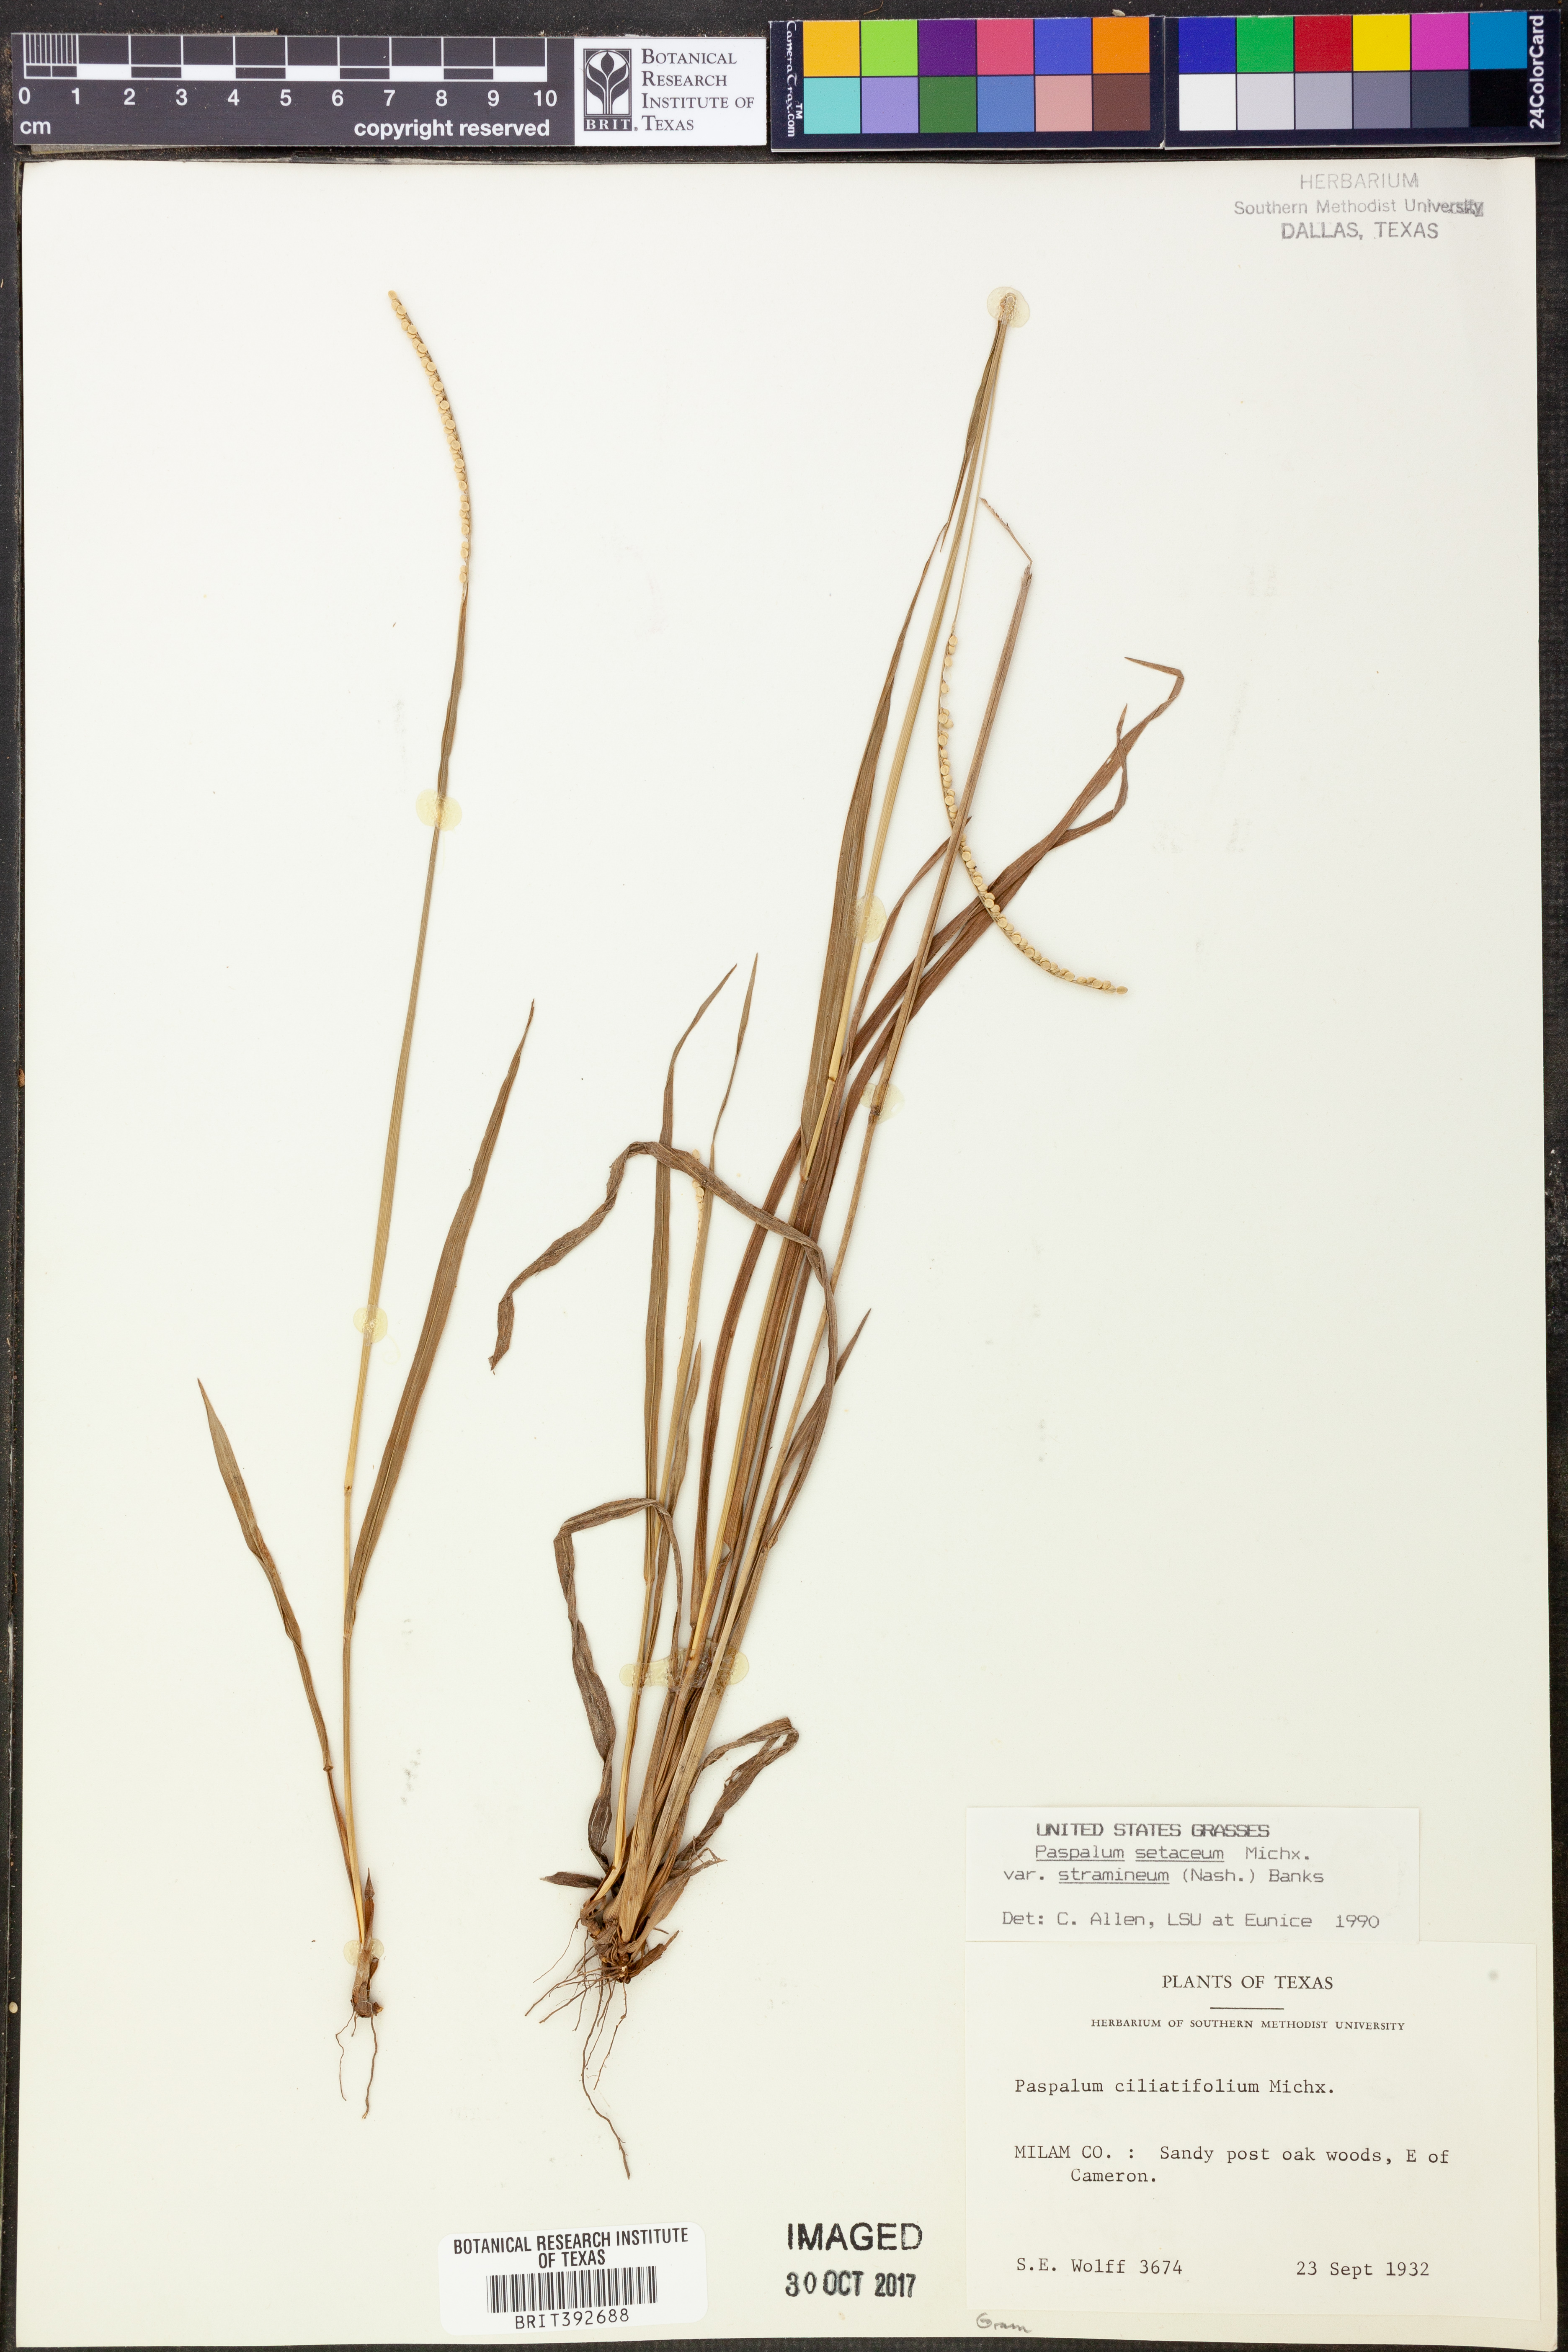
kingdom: Plantae
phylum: Tracheophyta
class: Liliopsida
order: Poales
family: Poaceae
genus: Paspalum
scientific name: Paspalum setaceum
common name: Slender paspalum
